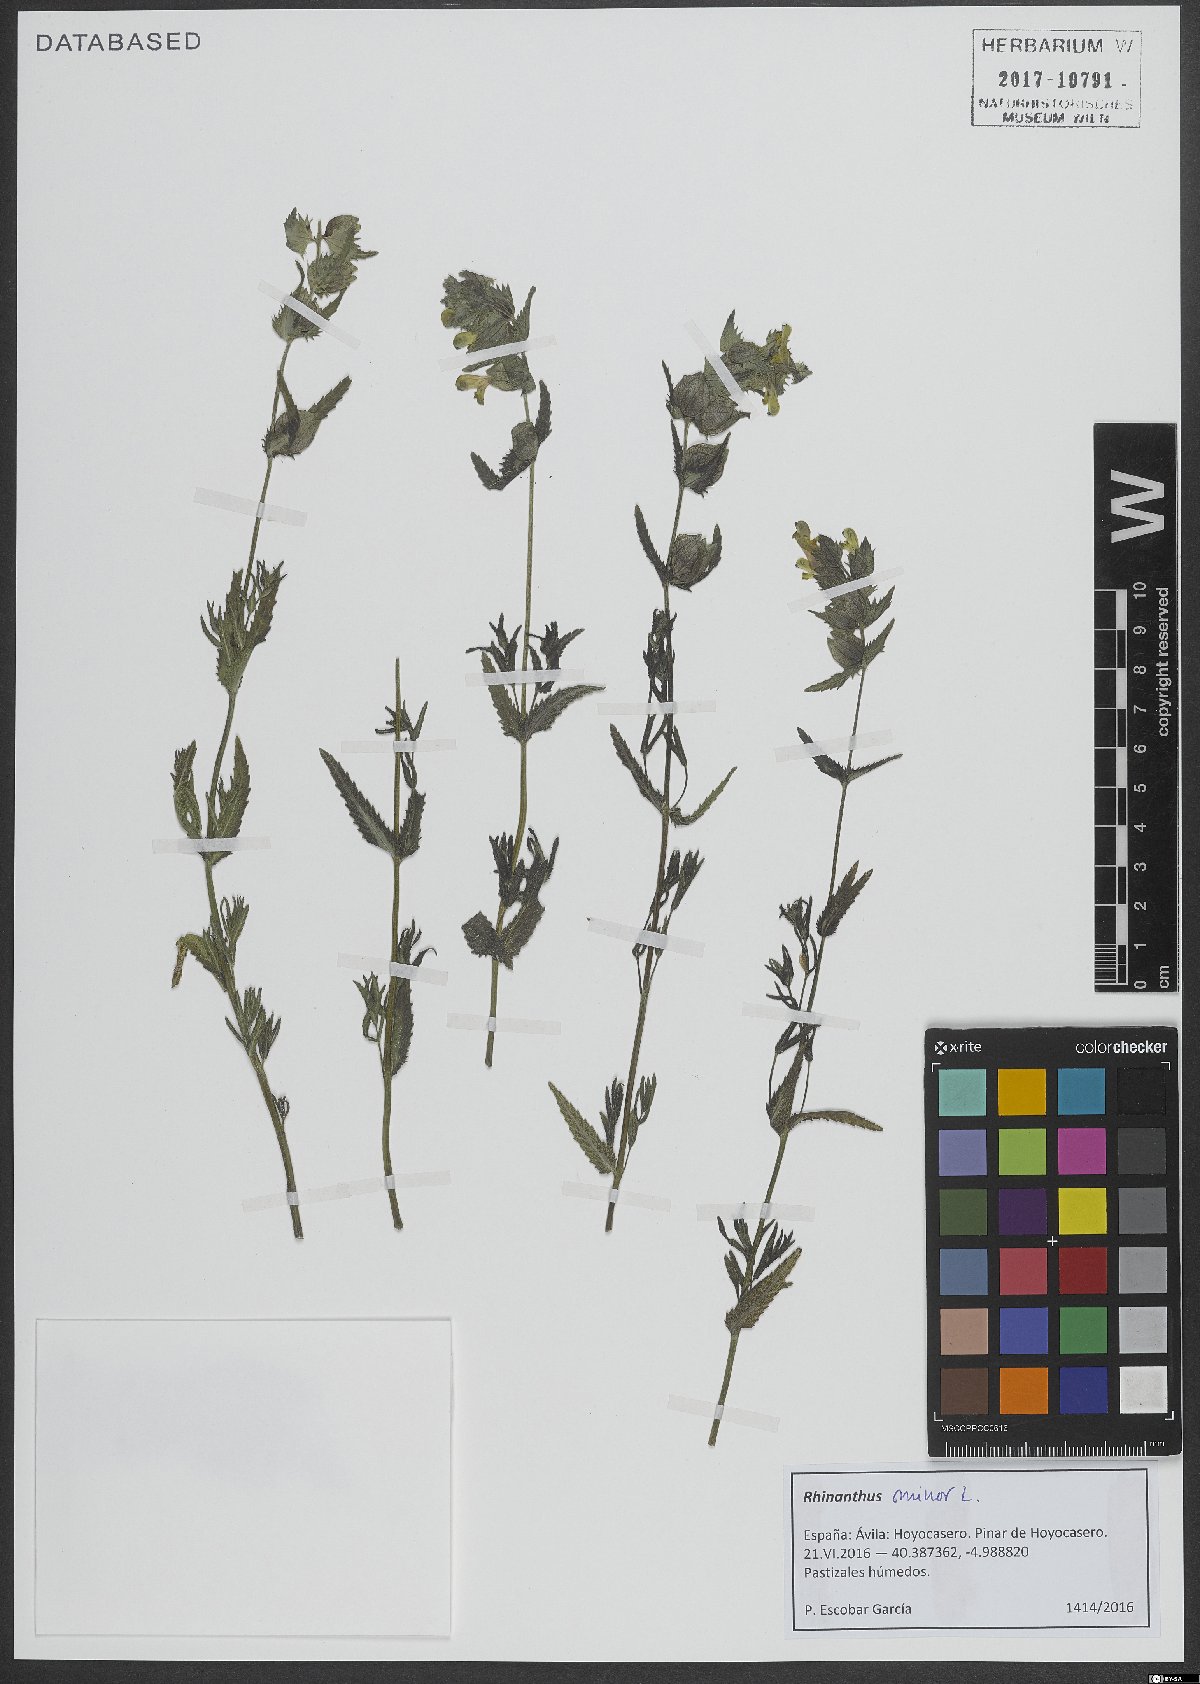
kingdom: Plantae
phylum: Tracheophyta
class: Magnoliopsida
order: Lamiales
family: Orobanchaceae
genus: Rhinanthus
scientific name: Rhinanthus minor
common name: Yellow-rattle
